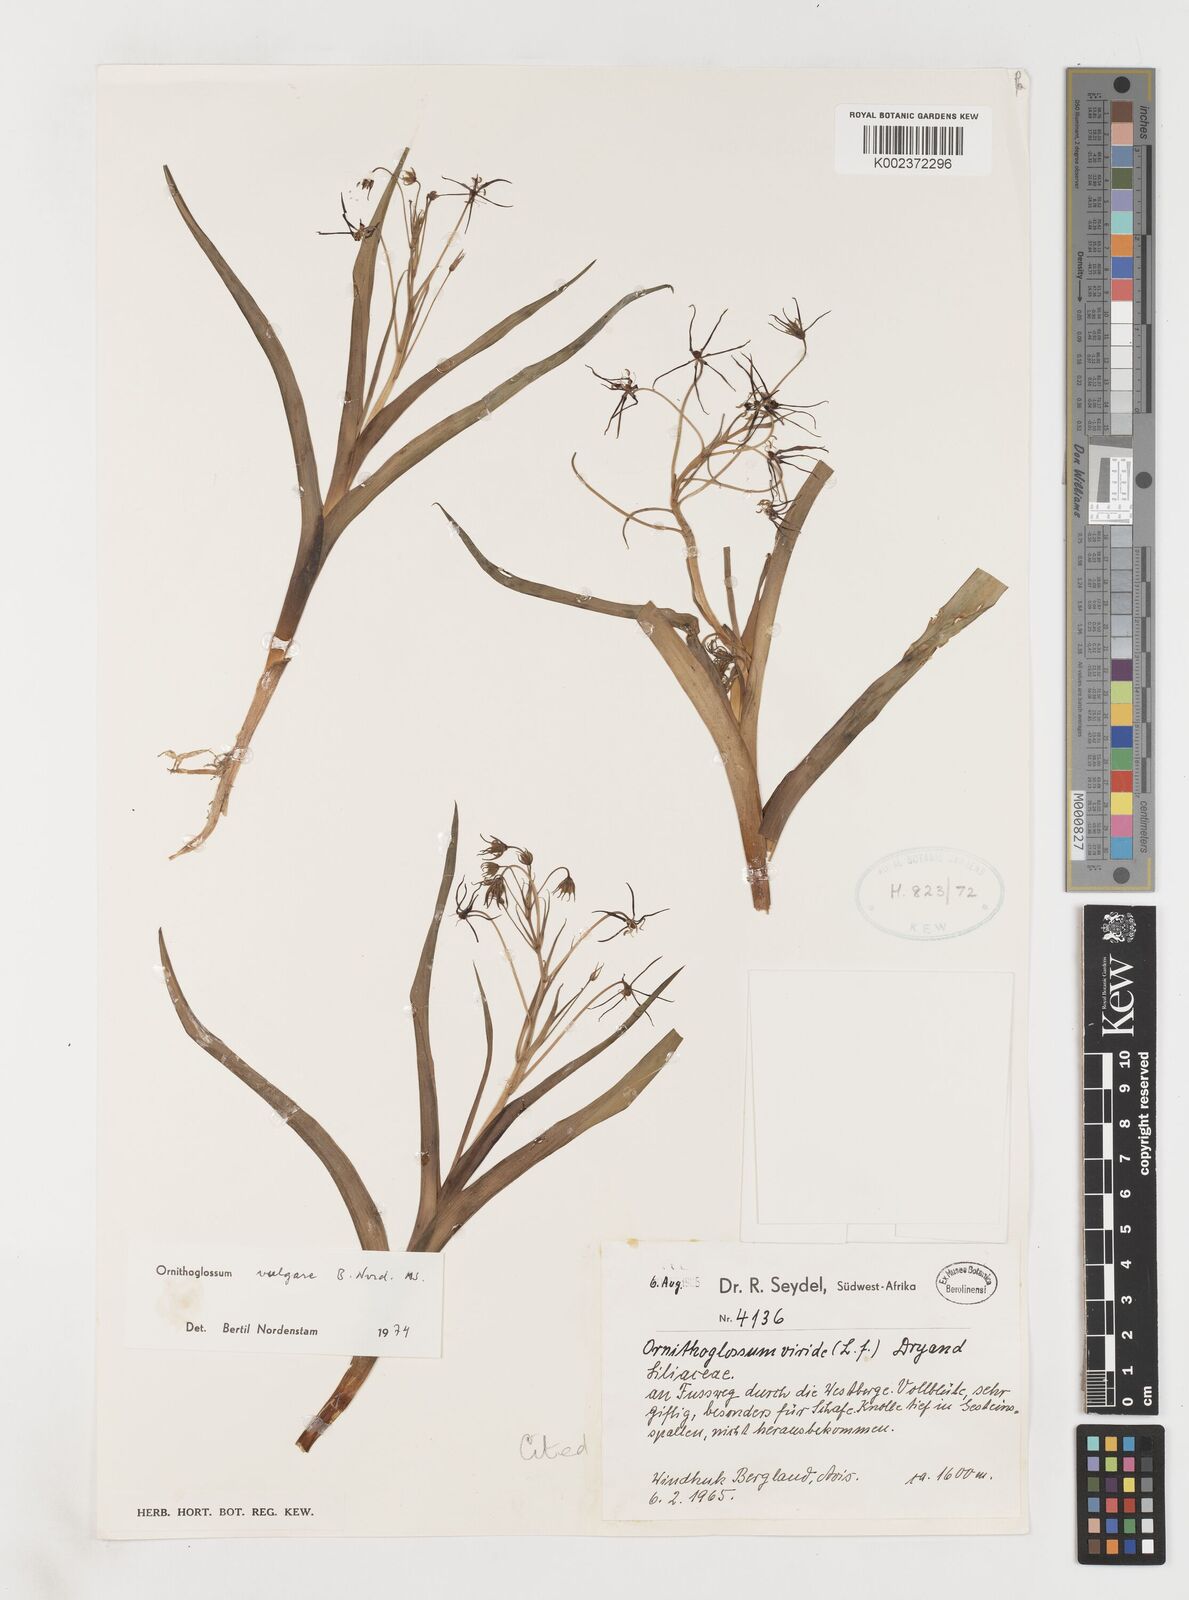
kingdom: Plantae
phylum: Tracheophyta
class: Liliopsida
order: Liliales
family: Colchicaceae
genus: Ornithoglossum
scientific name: Ornithoglossum vulgare
